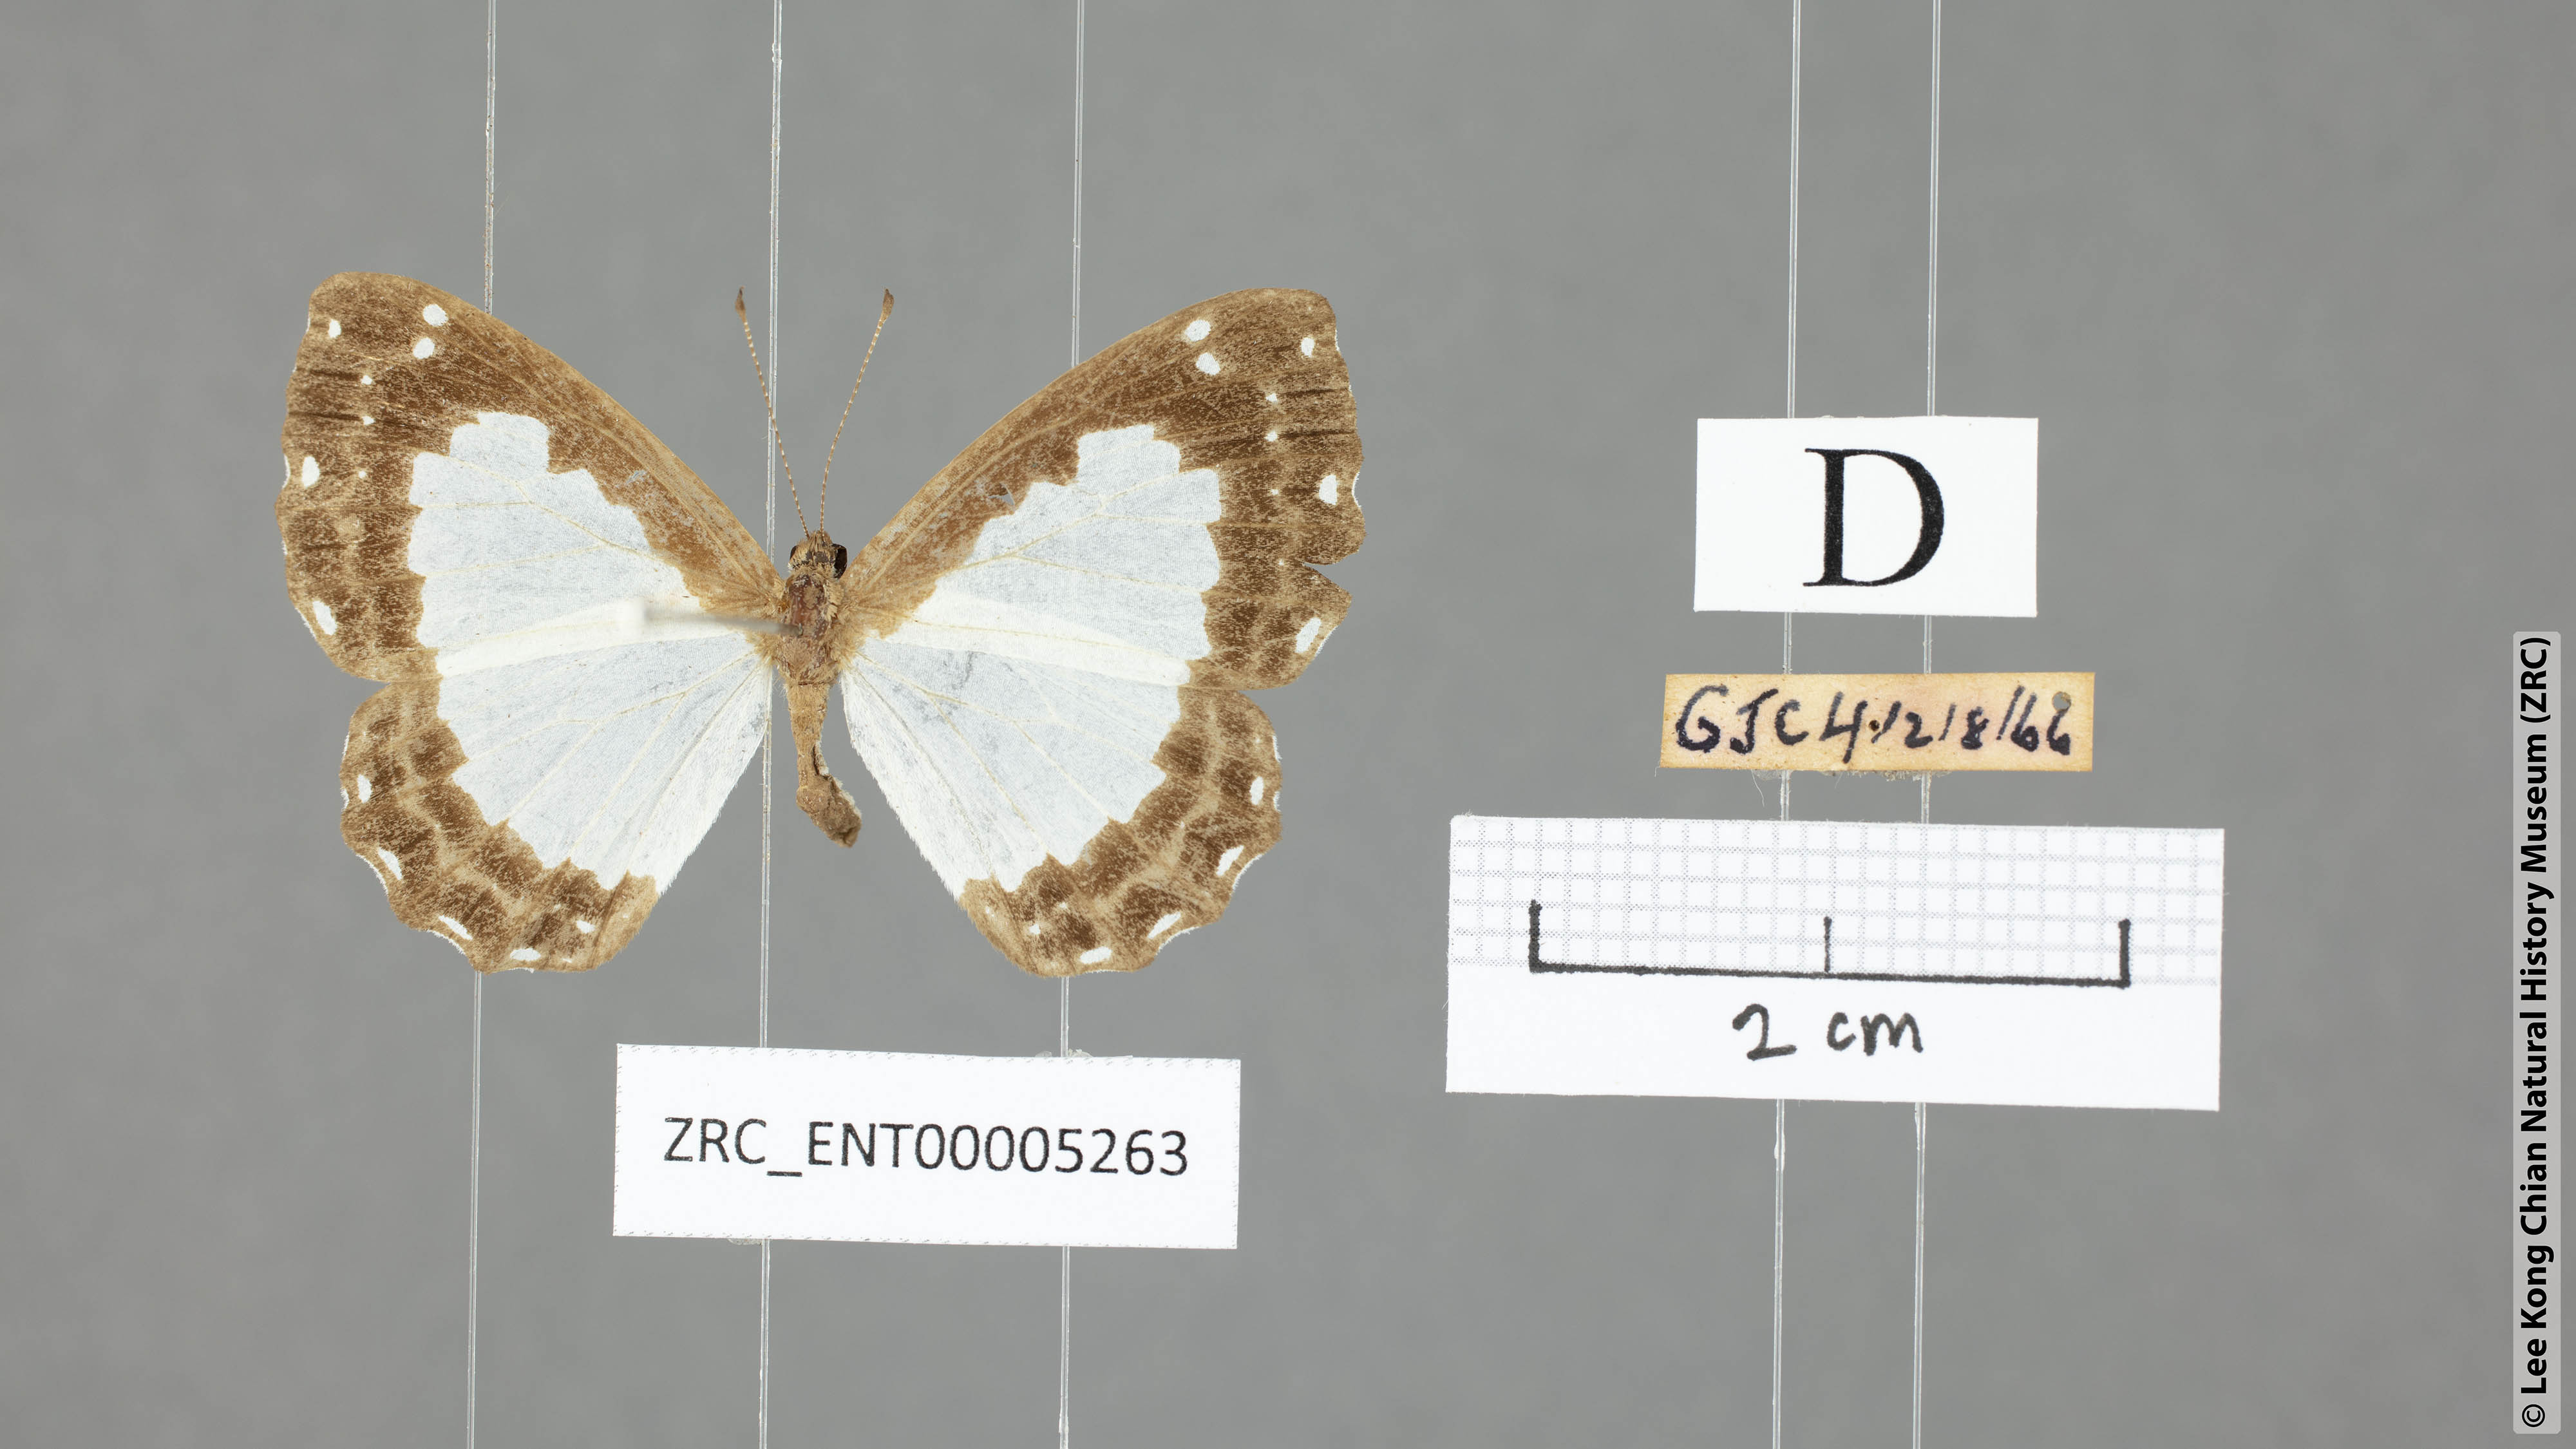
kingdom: Animalia
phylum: Arthropoda
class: Insecta
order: Lepidoptera
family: Riodinidae
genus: Stiboges
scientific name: Stiboges nymphidia
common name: Columbine
